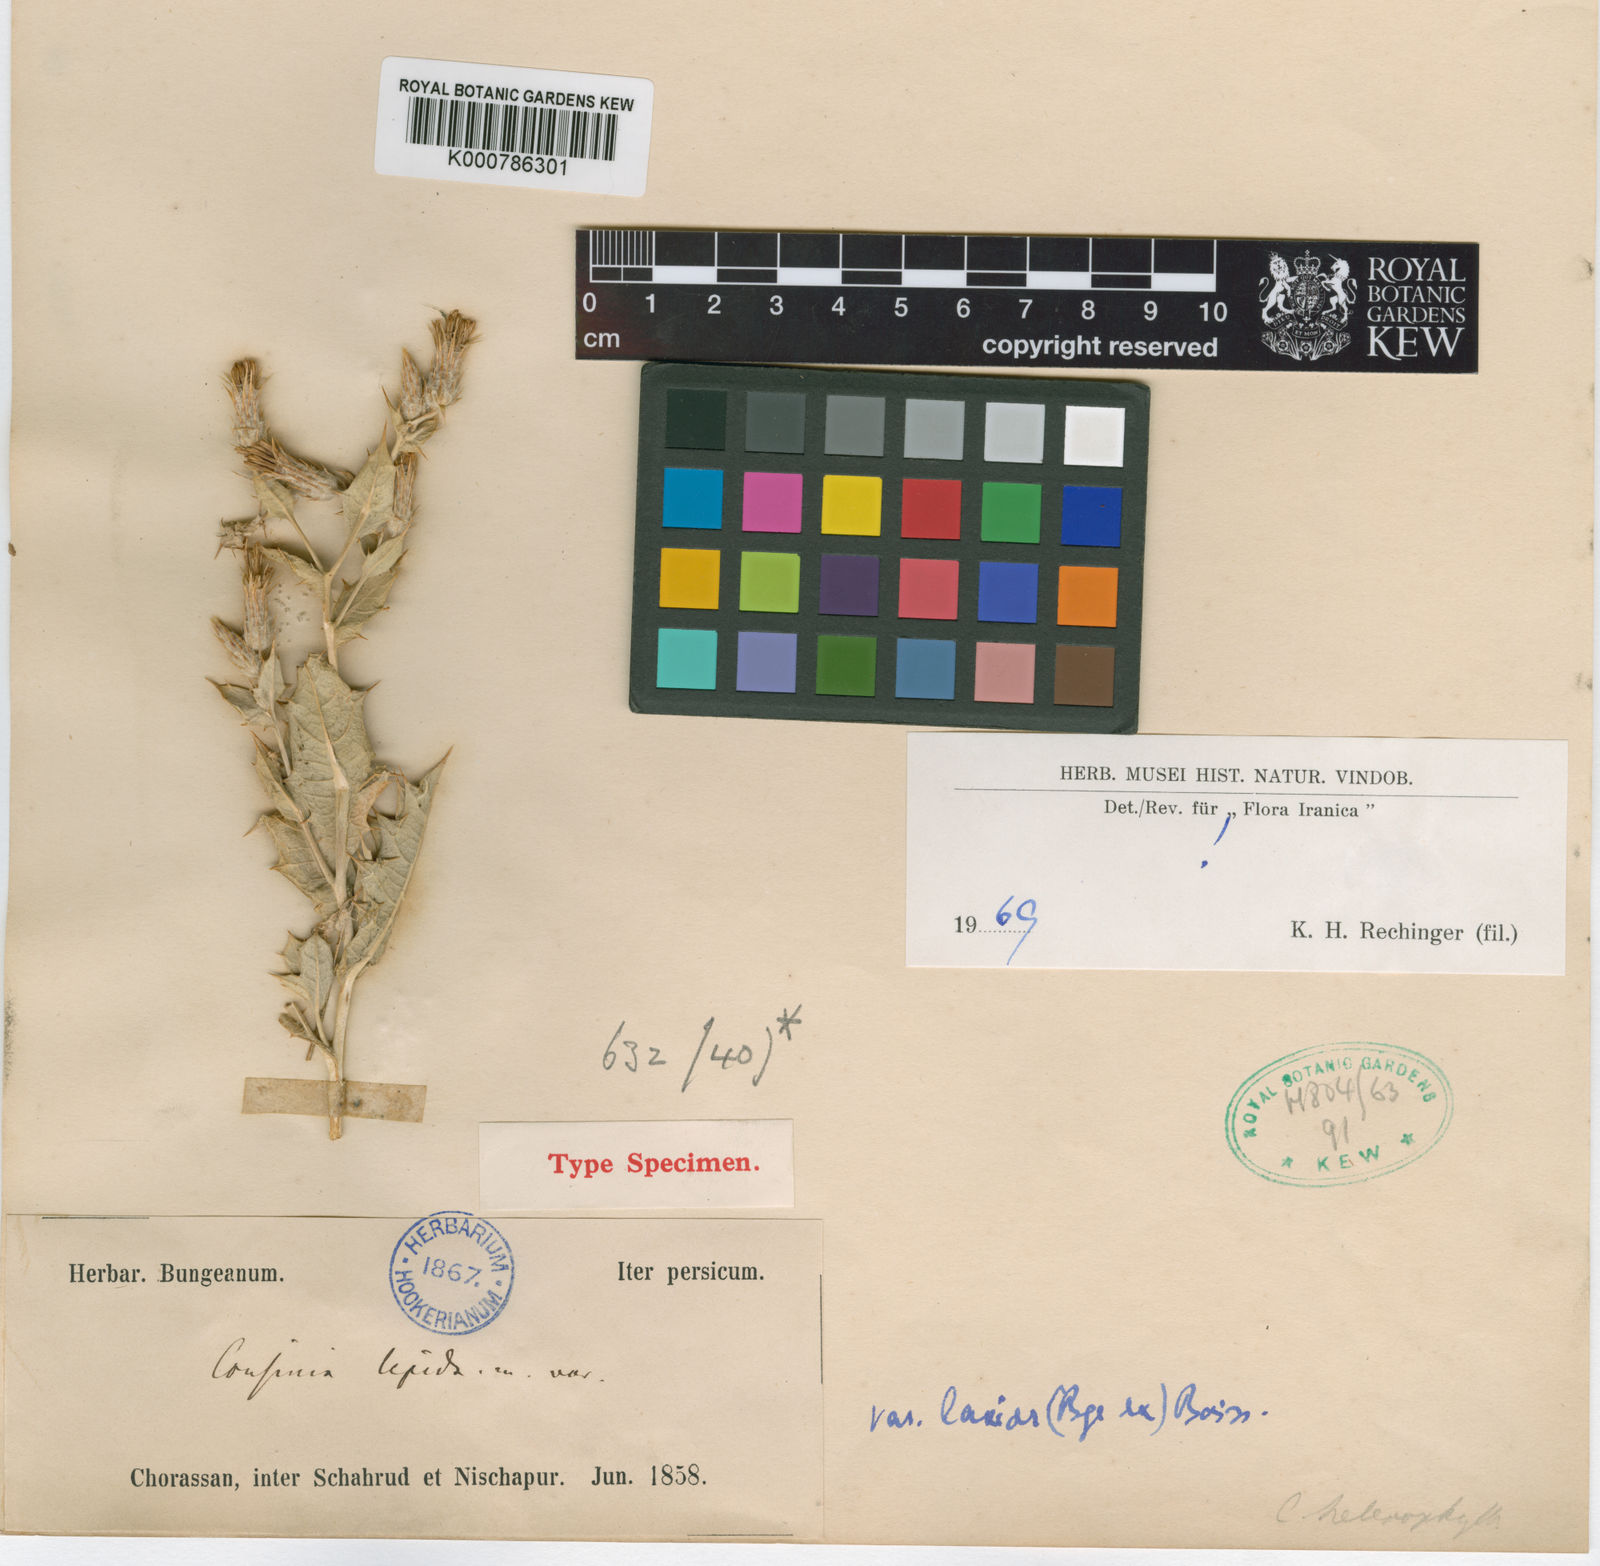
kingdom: Plantae
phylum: Tracheophyta
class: Magnoliopsida
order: Asterales
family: Asteraceae
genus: Cousinia
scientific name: Cousinia lepida
